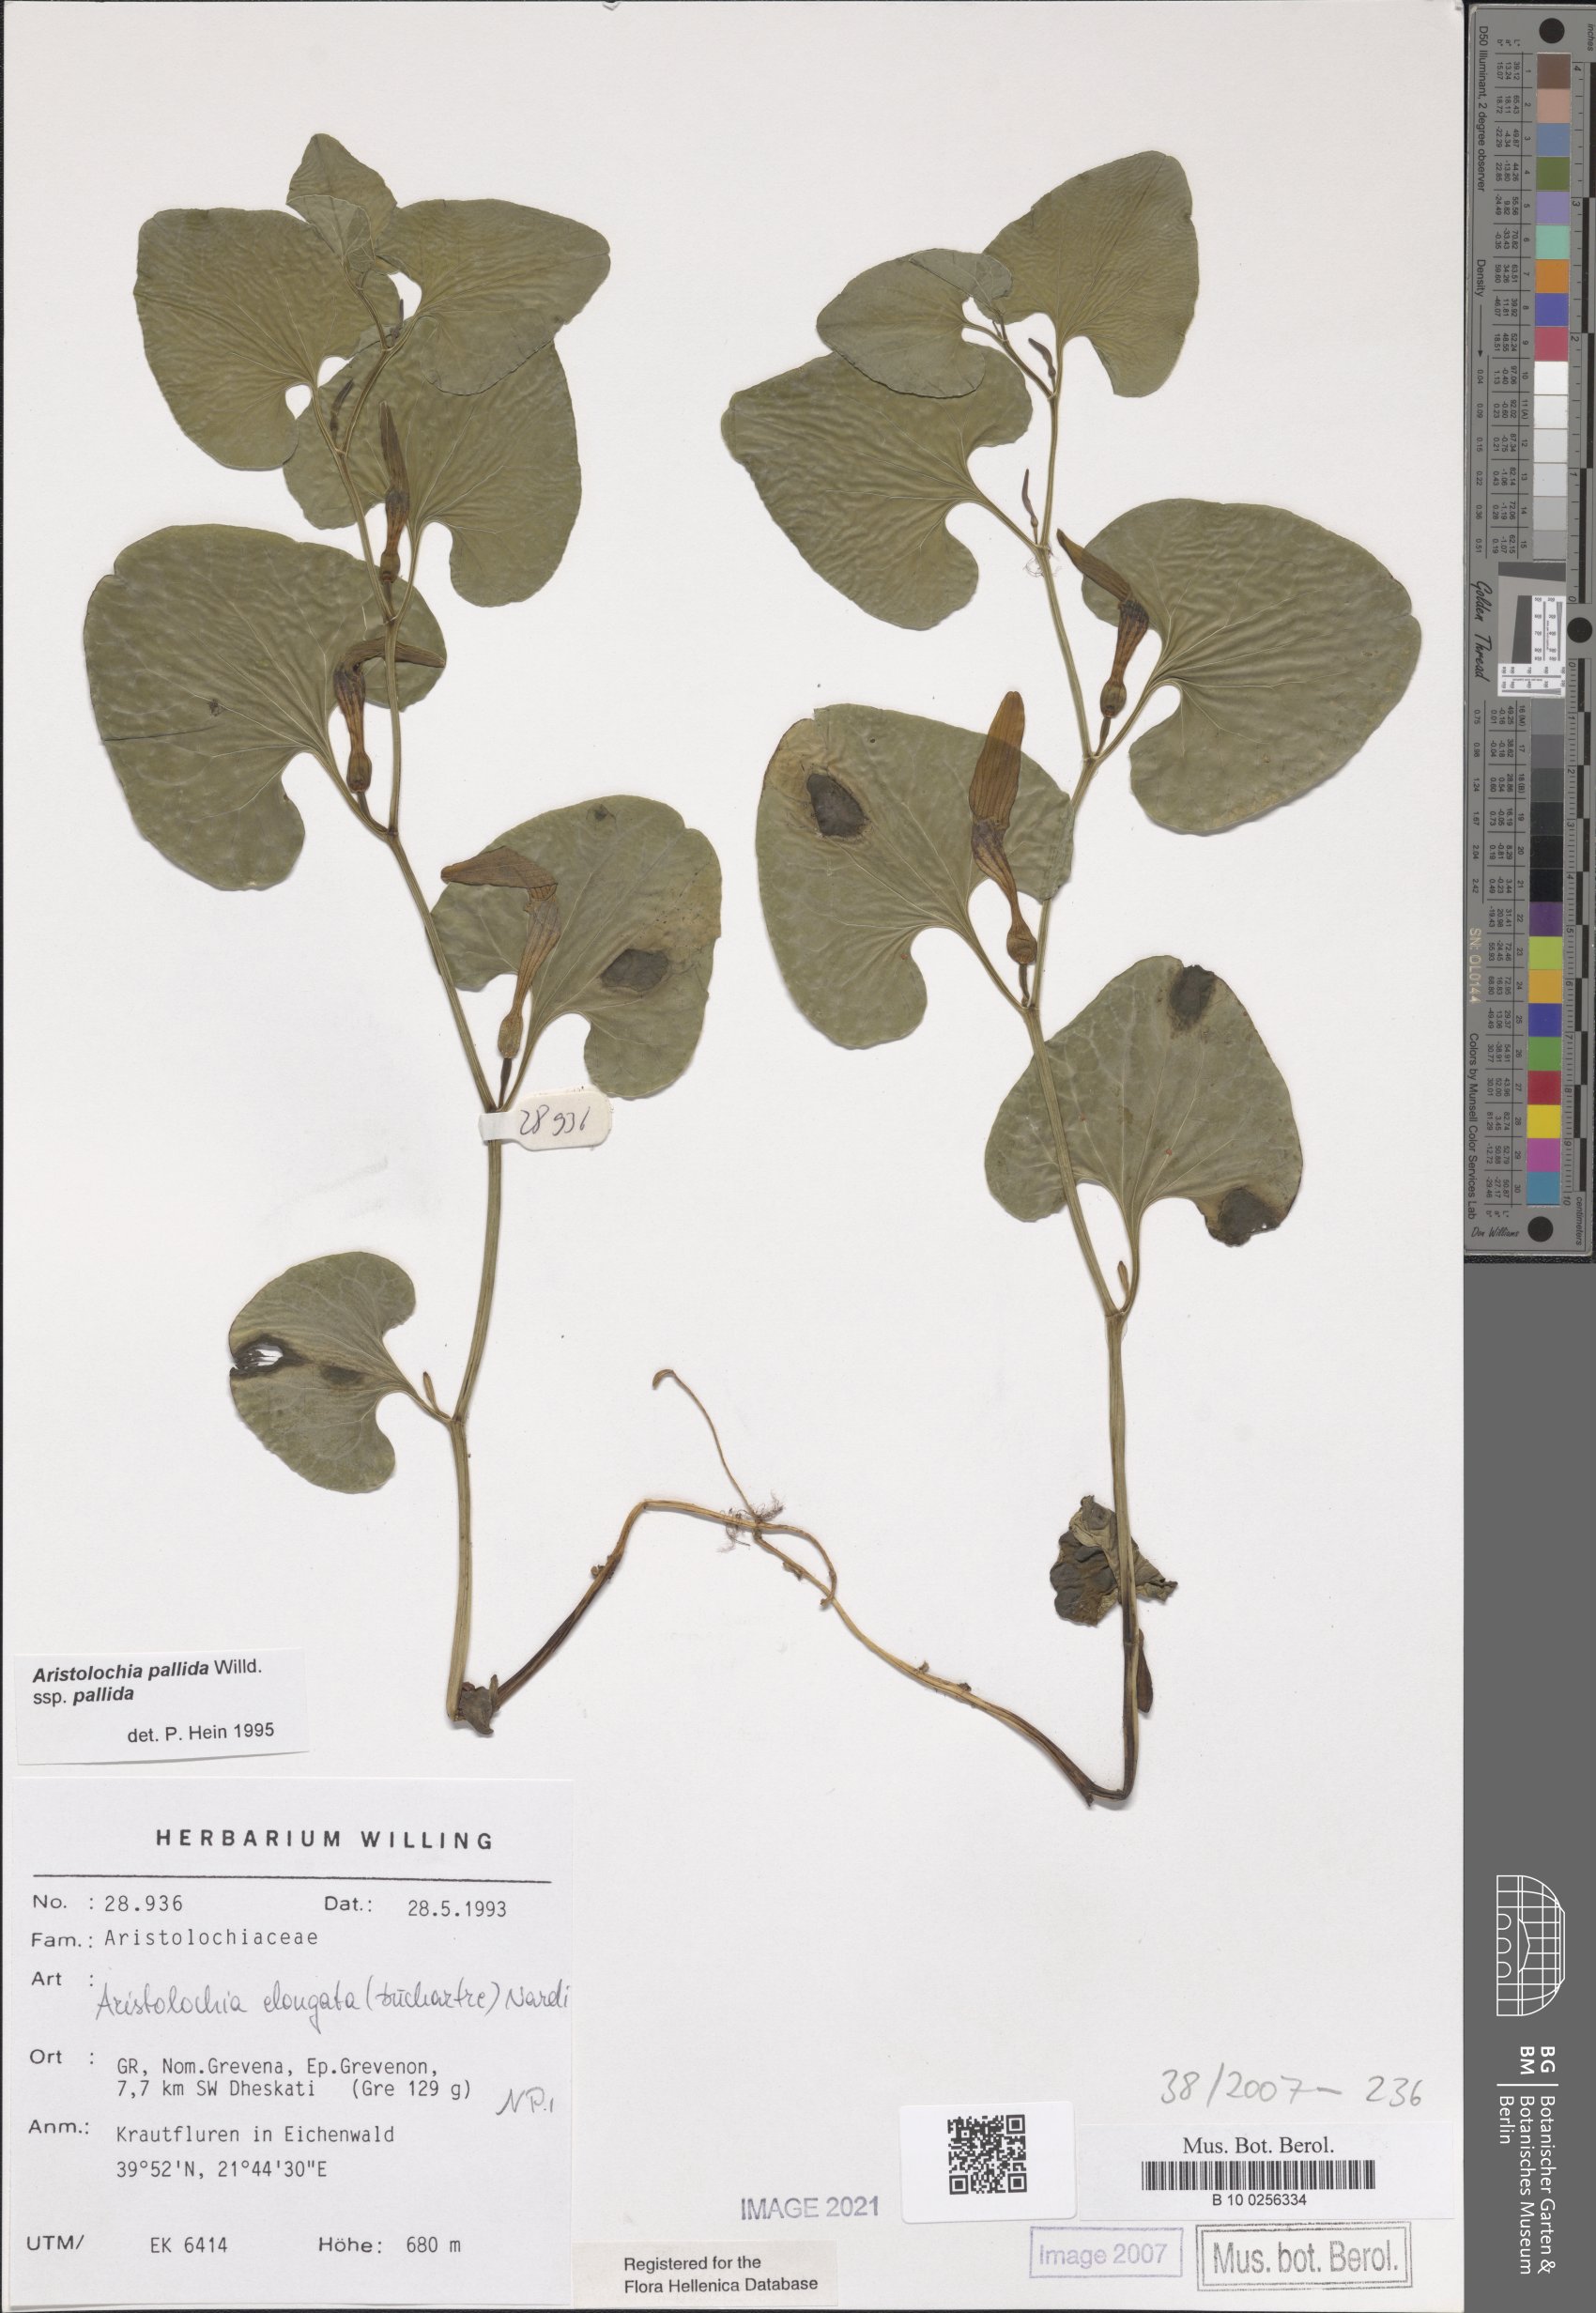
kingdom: Plantae
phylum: Tracheophyta
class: Magnoliopsida
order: Piperales
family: Aristolochiaceae
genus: Aristolochia
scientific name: Aristolochia nardiana
